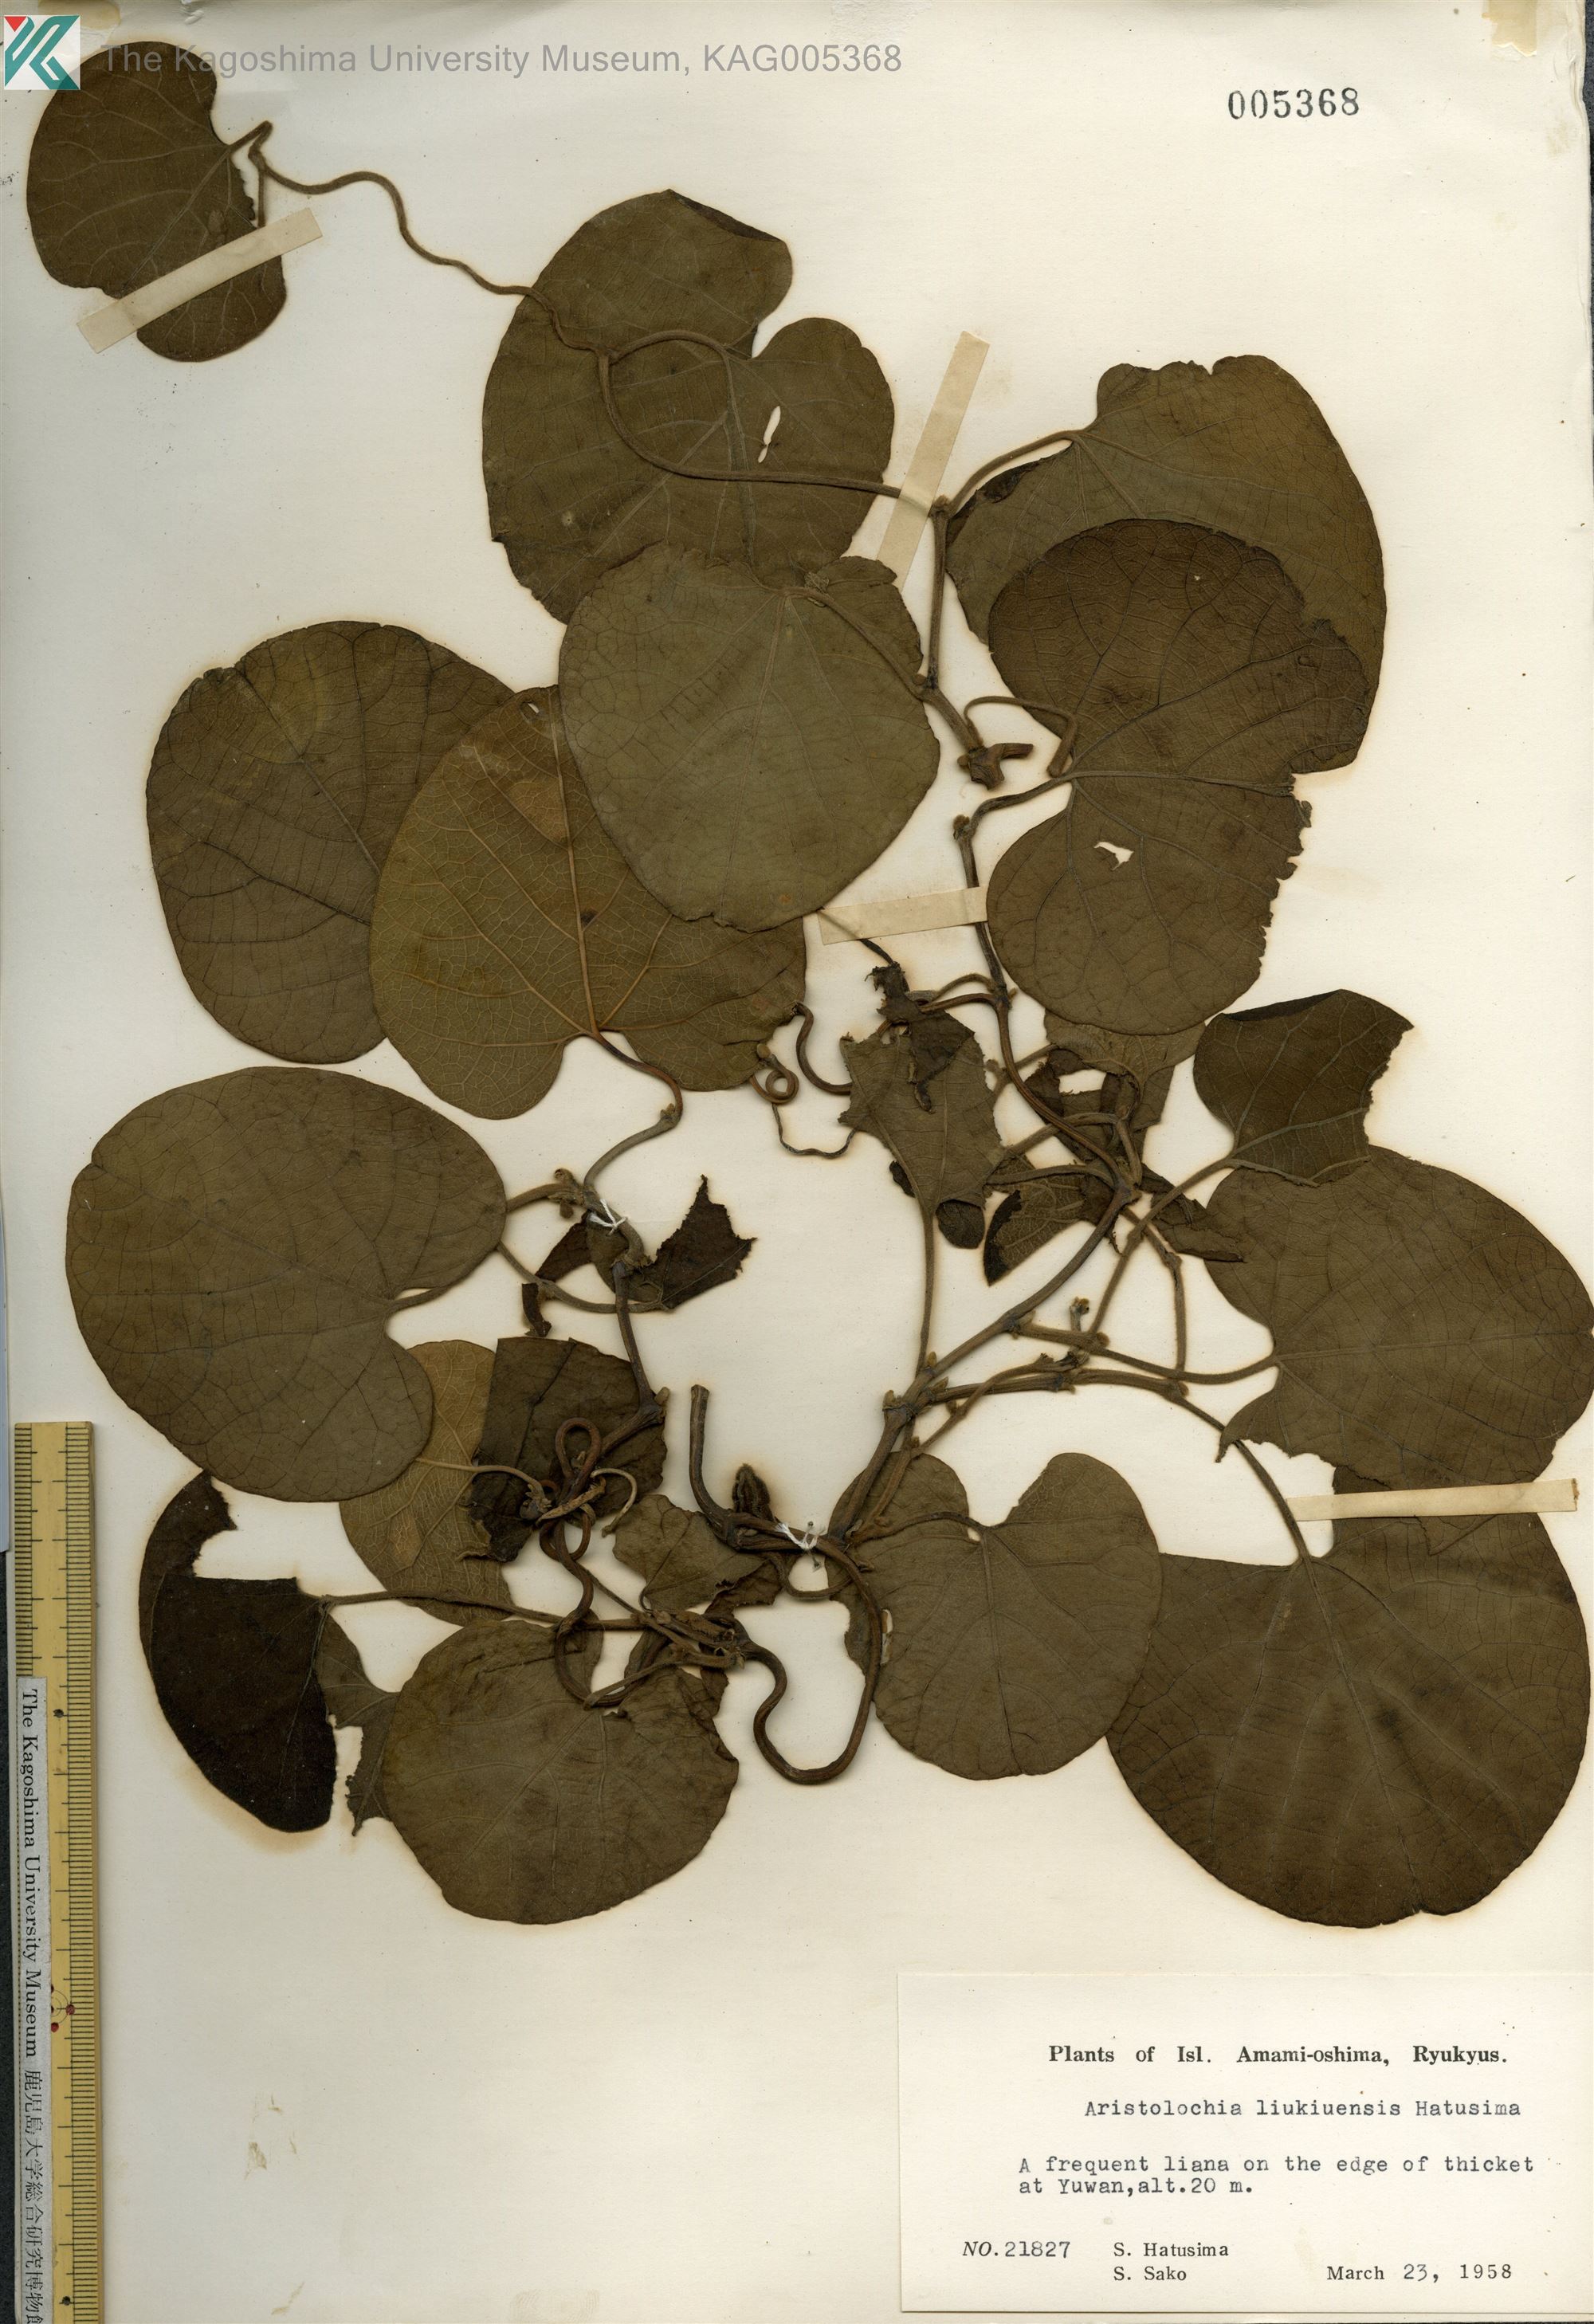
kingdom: Plantae
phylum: Tracheophyta
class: Magnoliopsida
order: Piperales
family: Aristolochiaceae
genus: Isotrema
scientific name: Isotrema liukiuense
